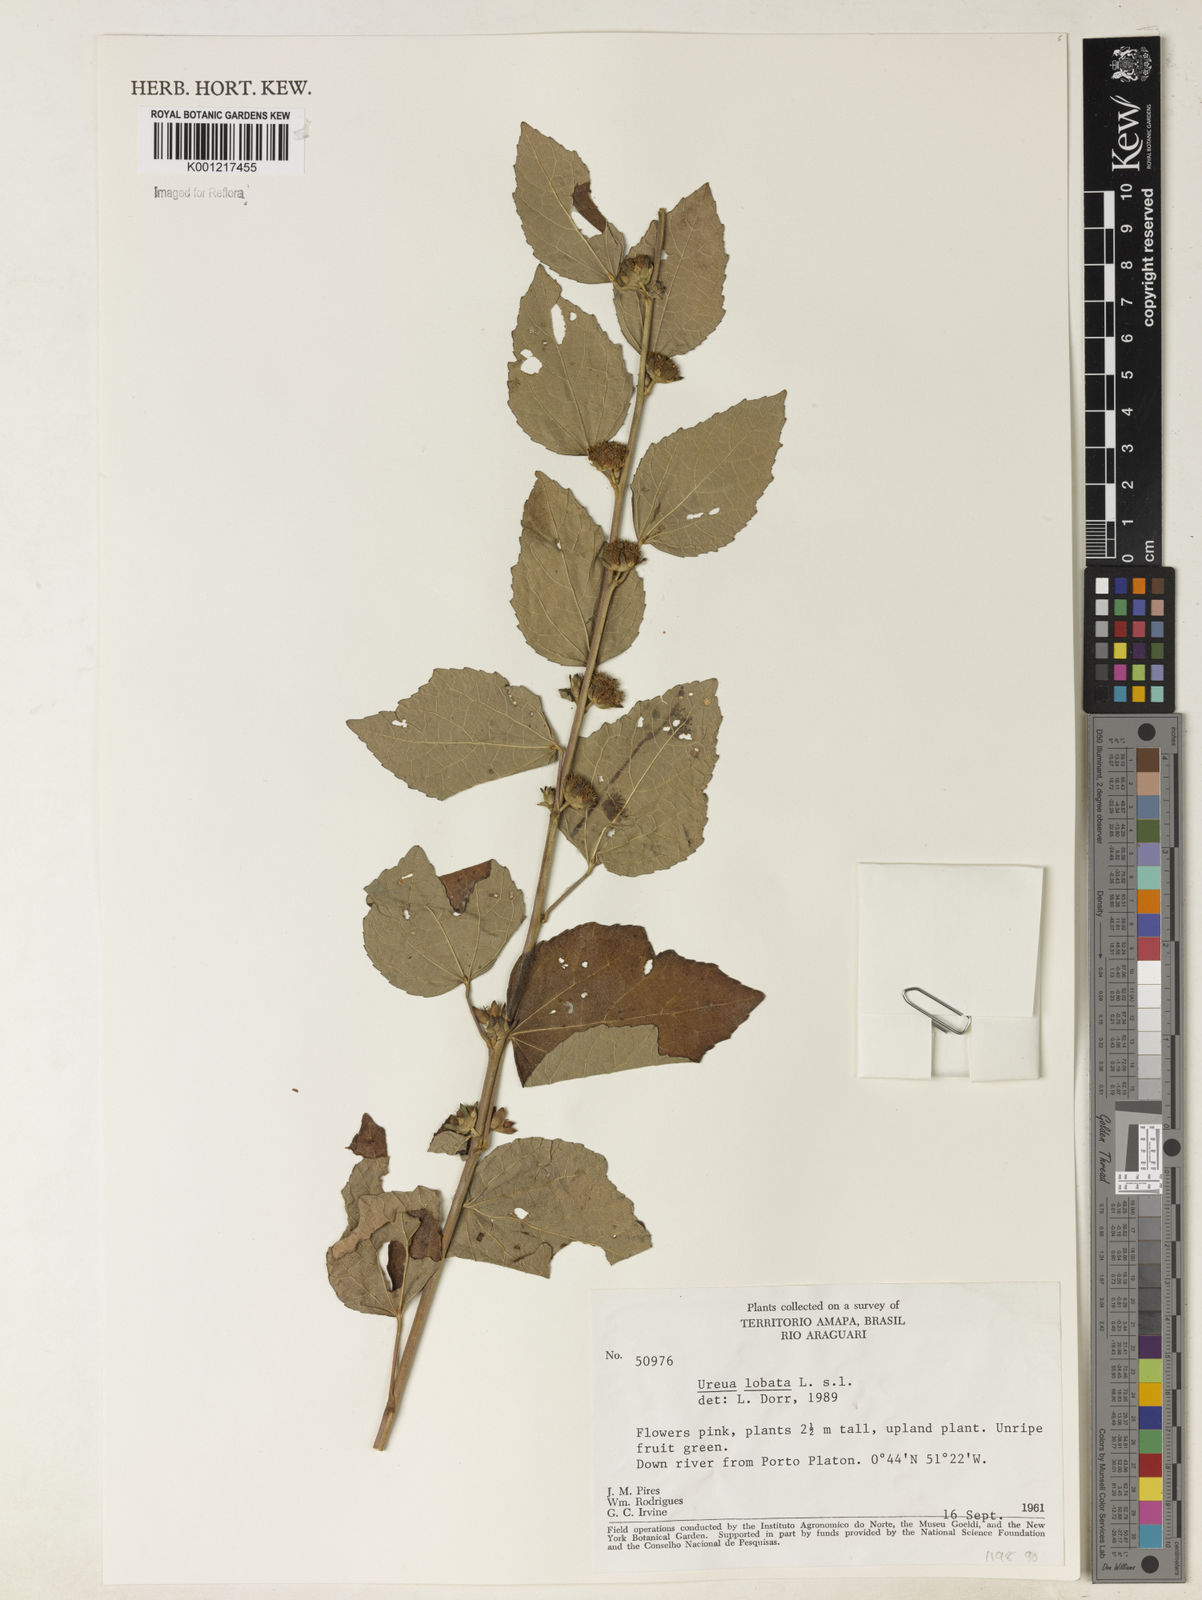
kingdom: Plantae
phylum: Tracheophyta
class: Magnoliopsida
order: Malvales
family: Malvaceae
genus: Urena
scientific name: Urena lobata
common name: Caesarweed
